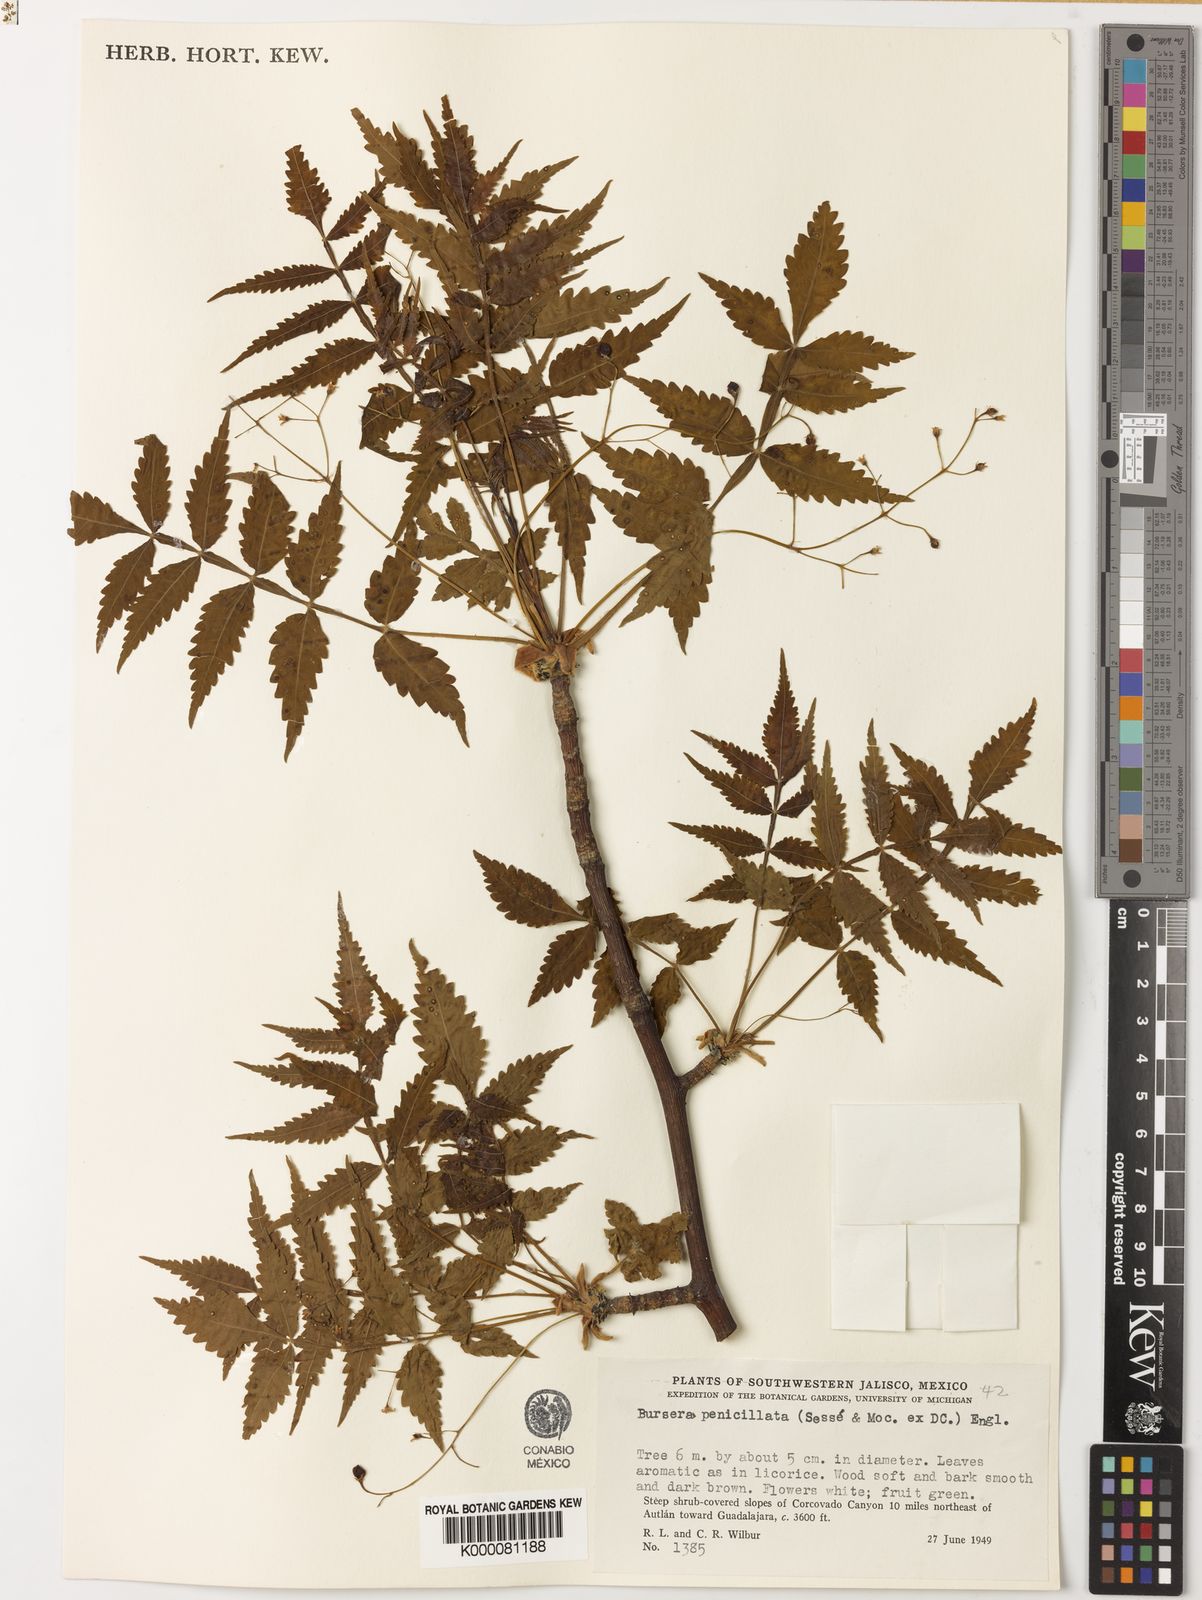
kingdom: Plantae
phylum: Tracheophyta
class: Magnoliopsida
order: Sapindales
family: Burseraceae
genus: Bursera
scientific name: Bursera penicillata
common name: Indian-lavender
